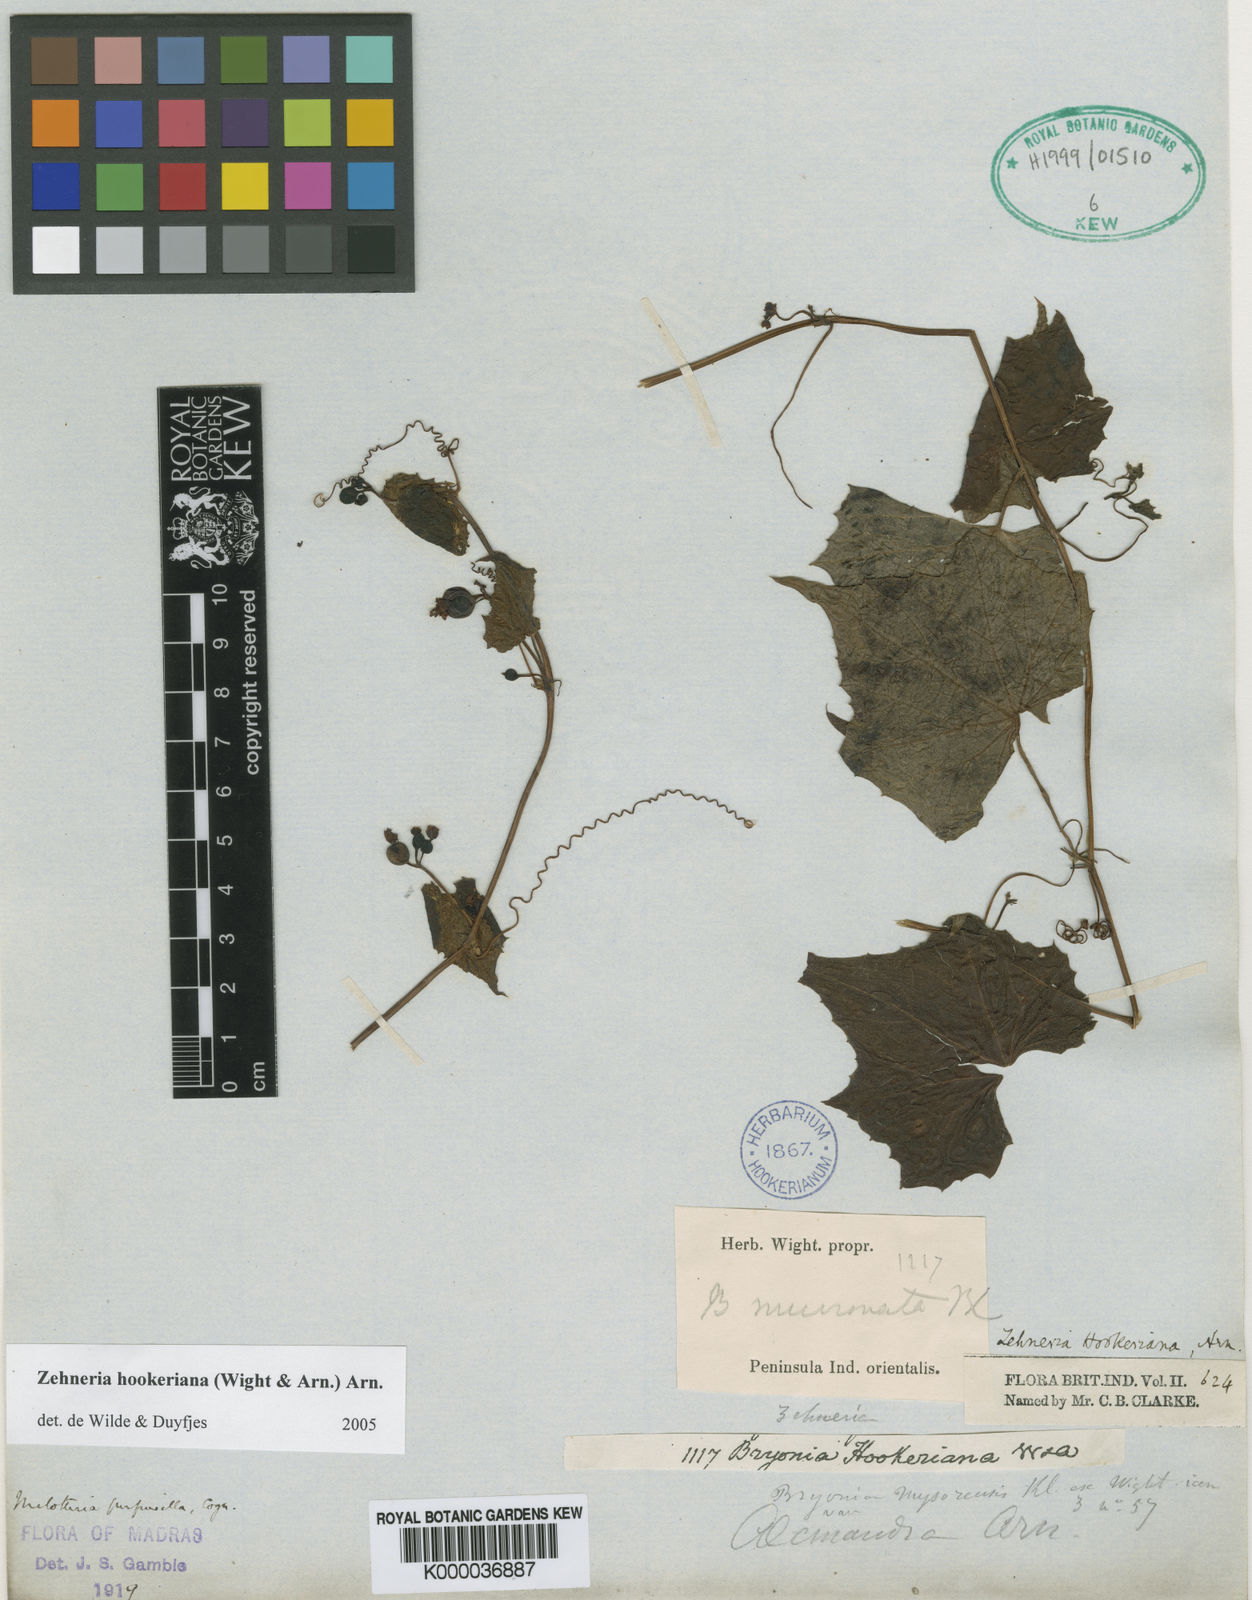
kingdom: Plantae
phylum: Tracheophyta
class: Magnoliopsida
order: Cucurbitales
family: Cucurbitaceae
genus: Zehneria
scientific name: Zehneria scabra
